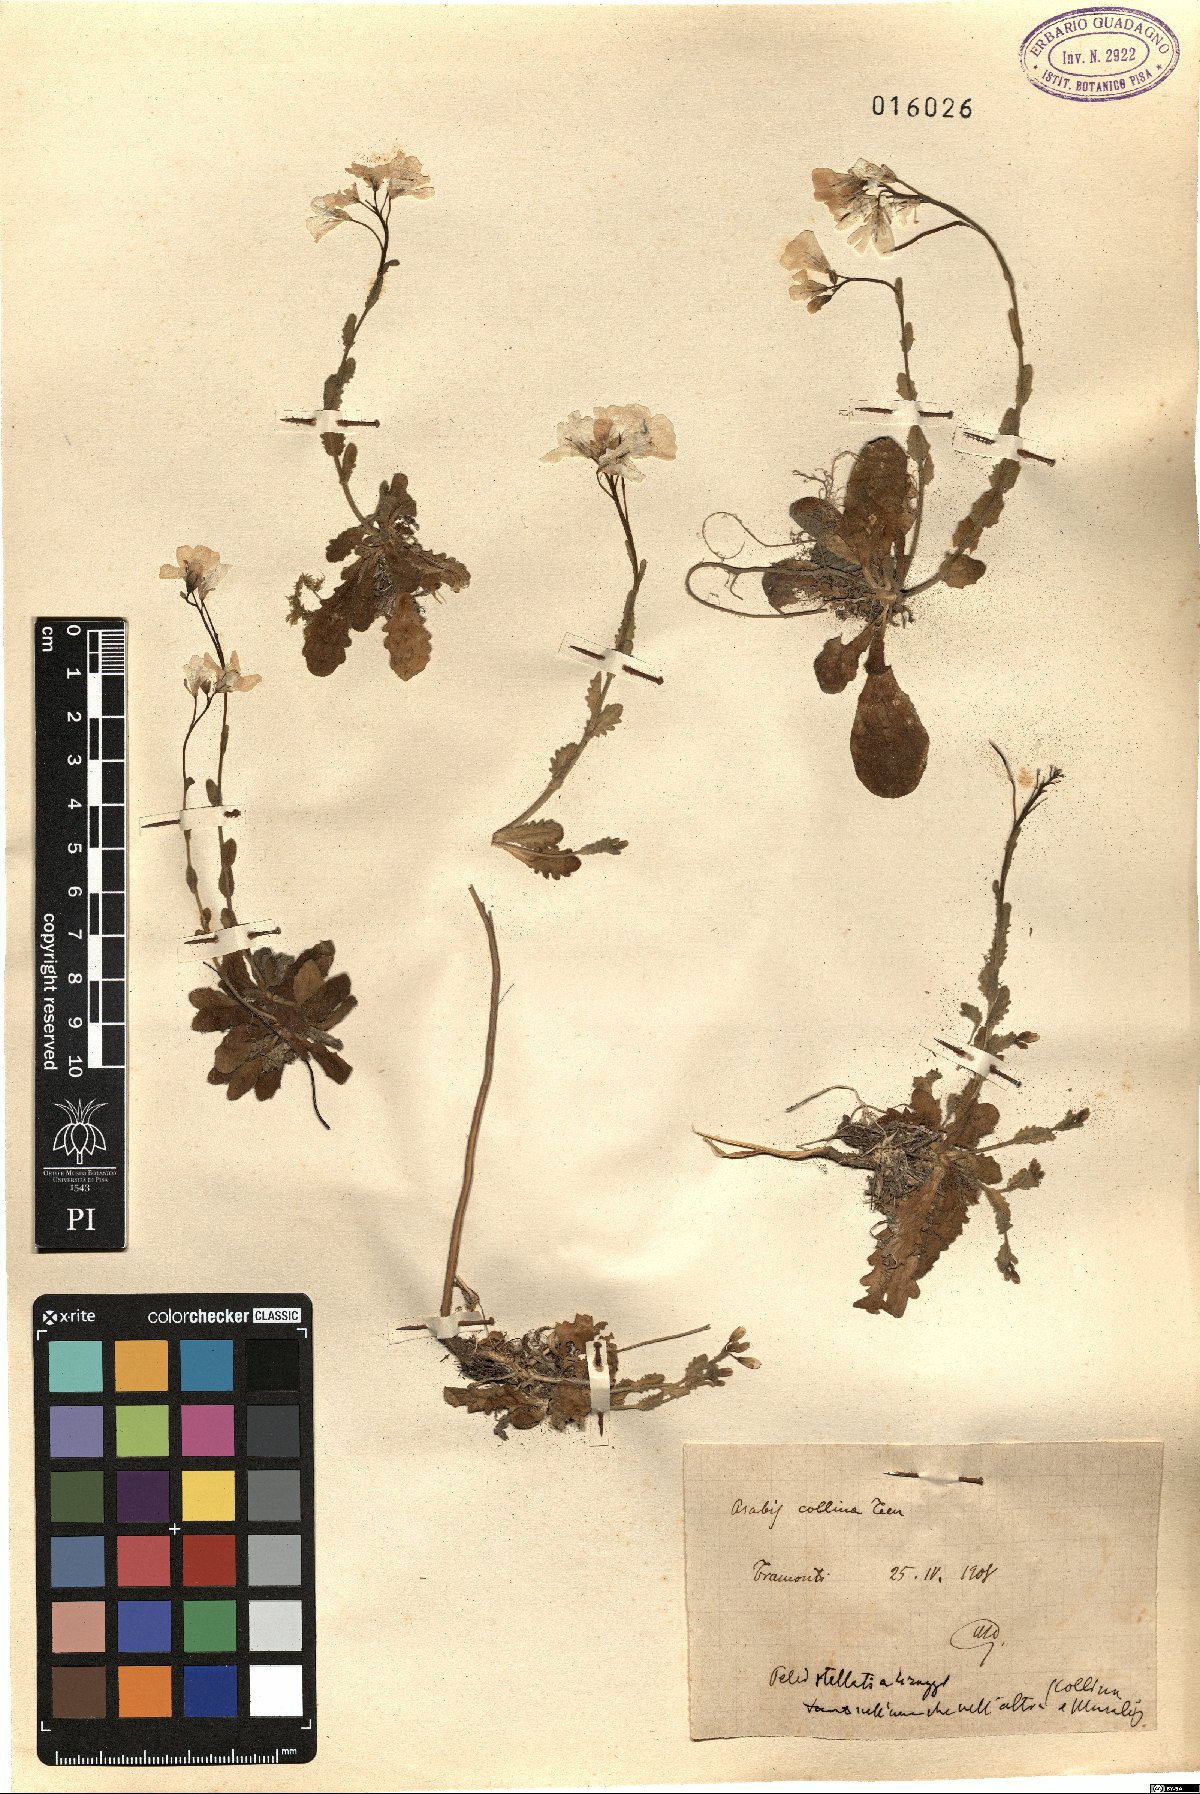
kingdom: Plantae
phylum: Tracheophyta
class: Magnoliopsida
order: Brassicales
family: Brassicaceae
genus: Arabis
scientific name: Arabis collina
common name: Rosy cress
